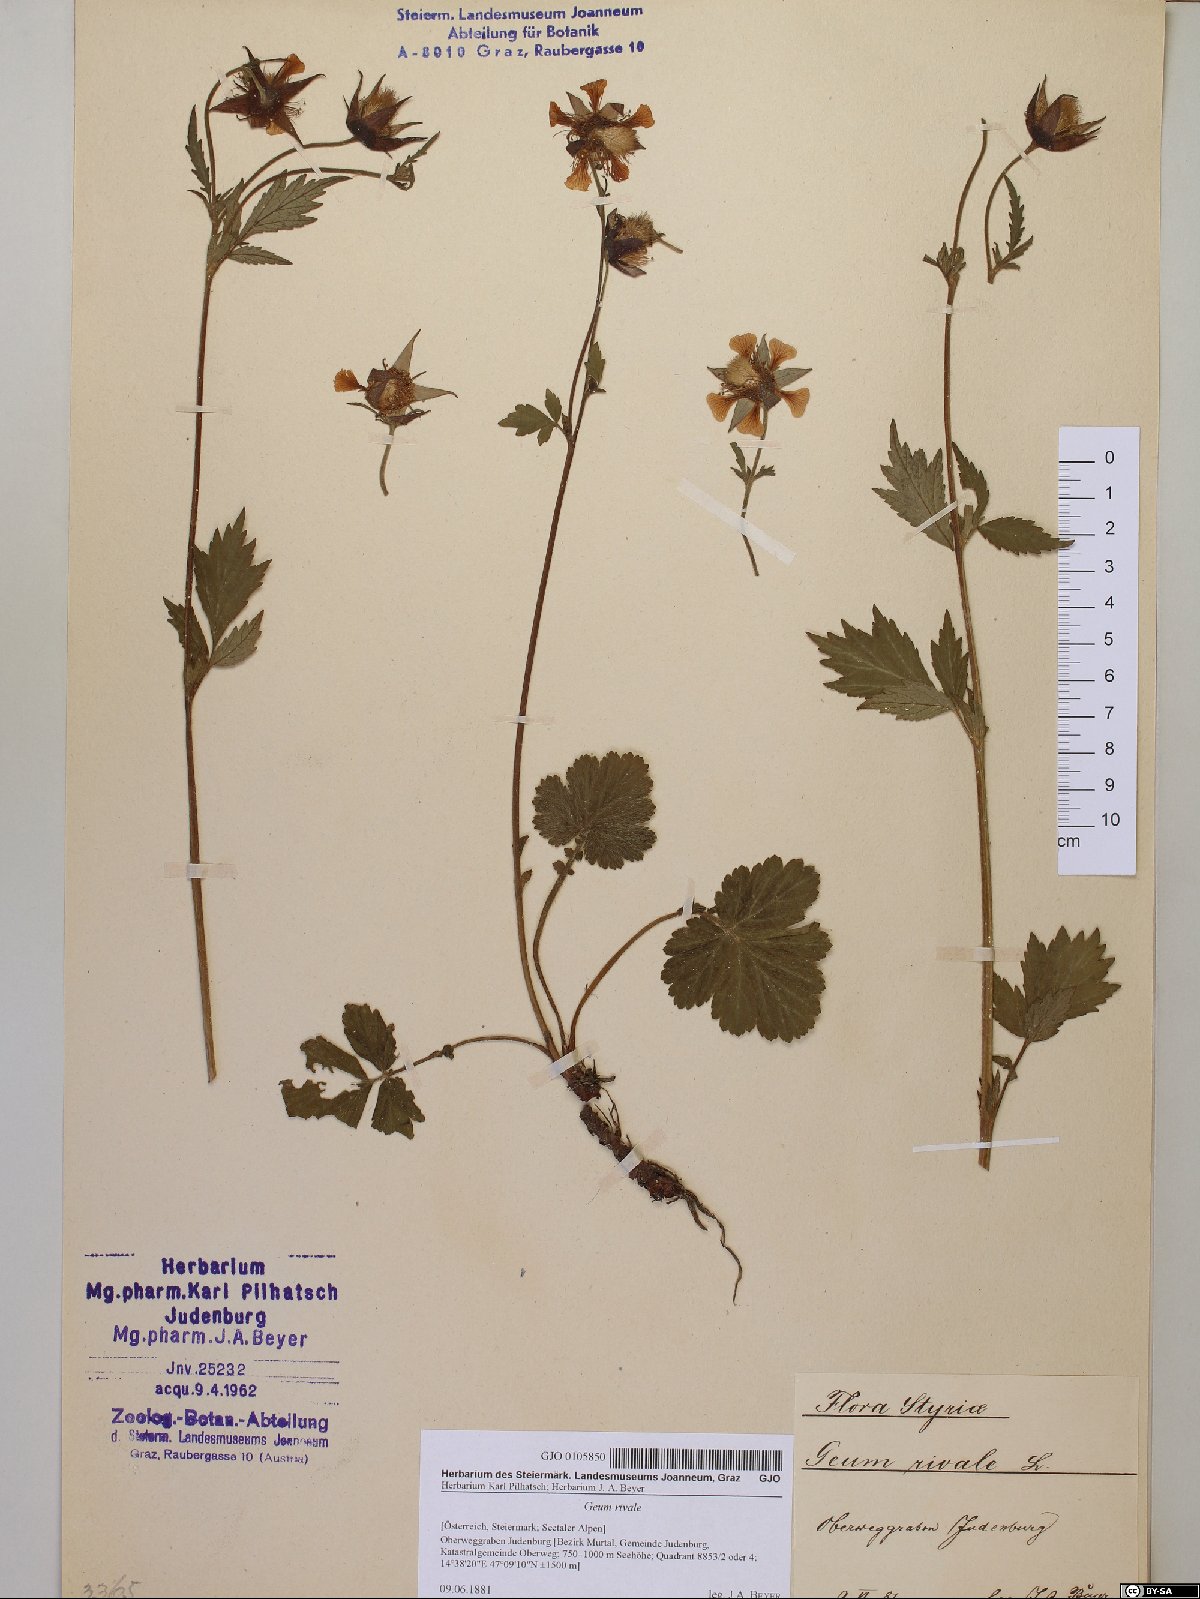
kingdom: Plantae
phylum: Tracheophyta
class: Magnoliopsida
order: Rosales
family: Rosaceae
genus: Geum
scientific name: Geum rivale
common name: Water avens
